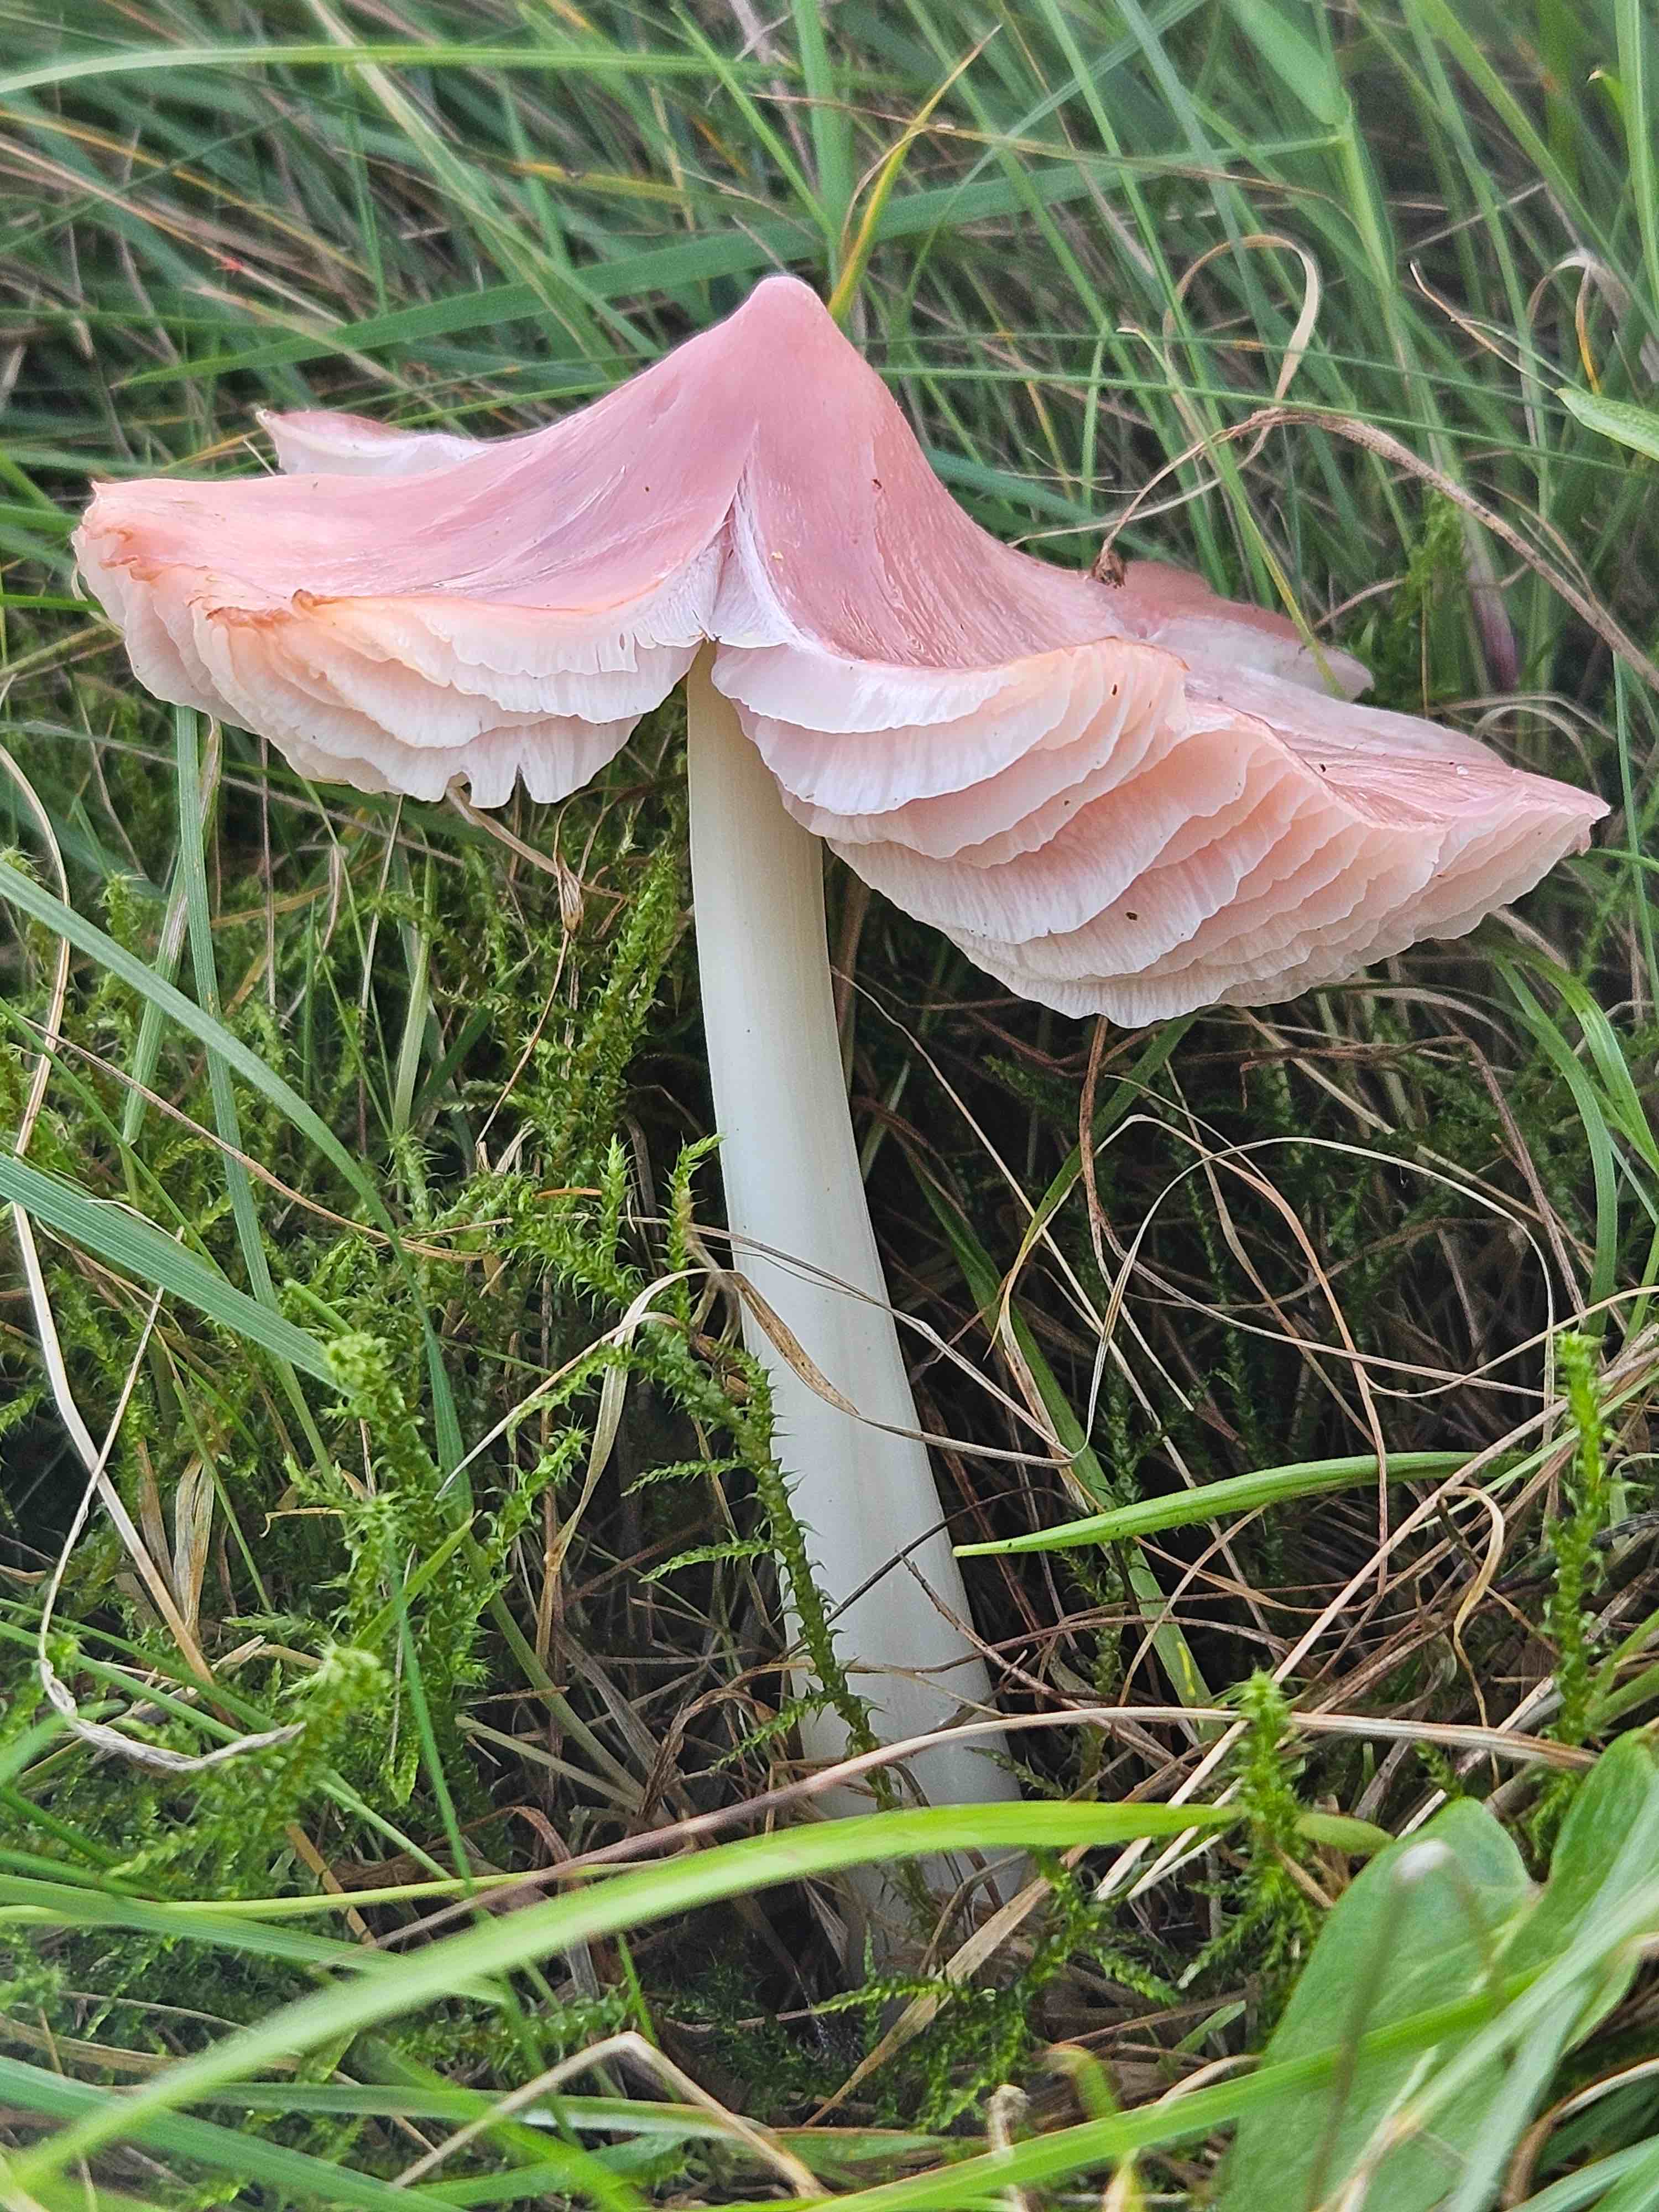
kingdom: Fungi
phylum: Basidiomycota
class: Agaricomycetes
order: Agaricales
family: Hygrophoraceae
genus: Porpolomopsis
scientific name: Porpolomopsis calyptriformis
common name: rosenrød vokshat
